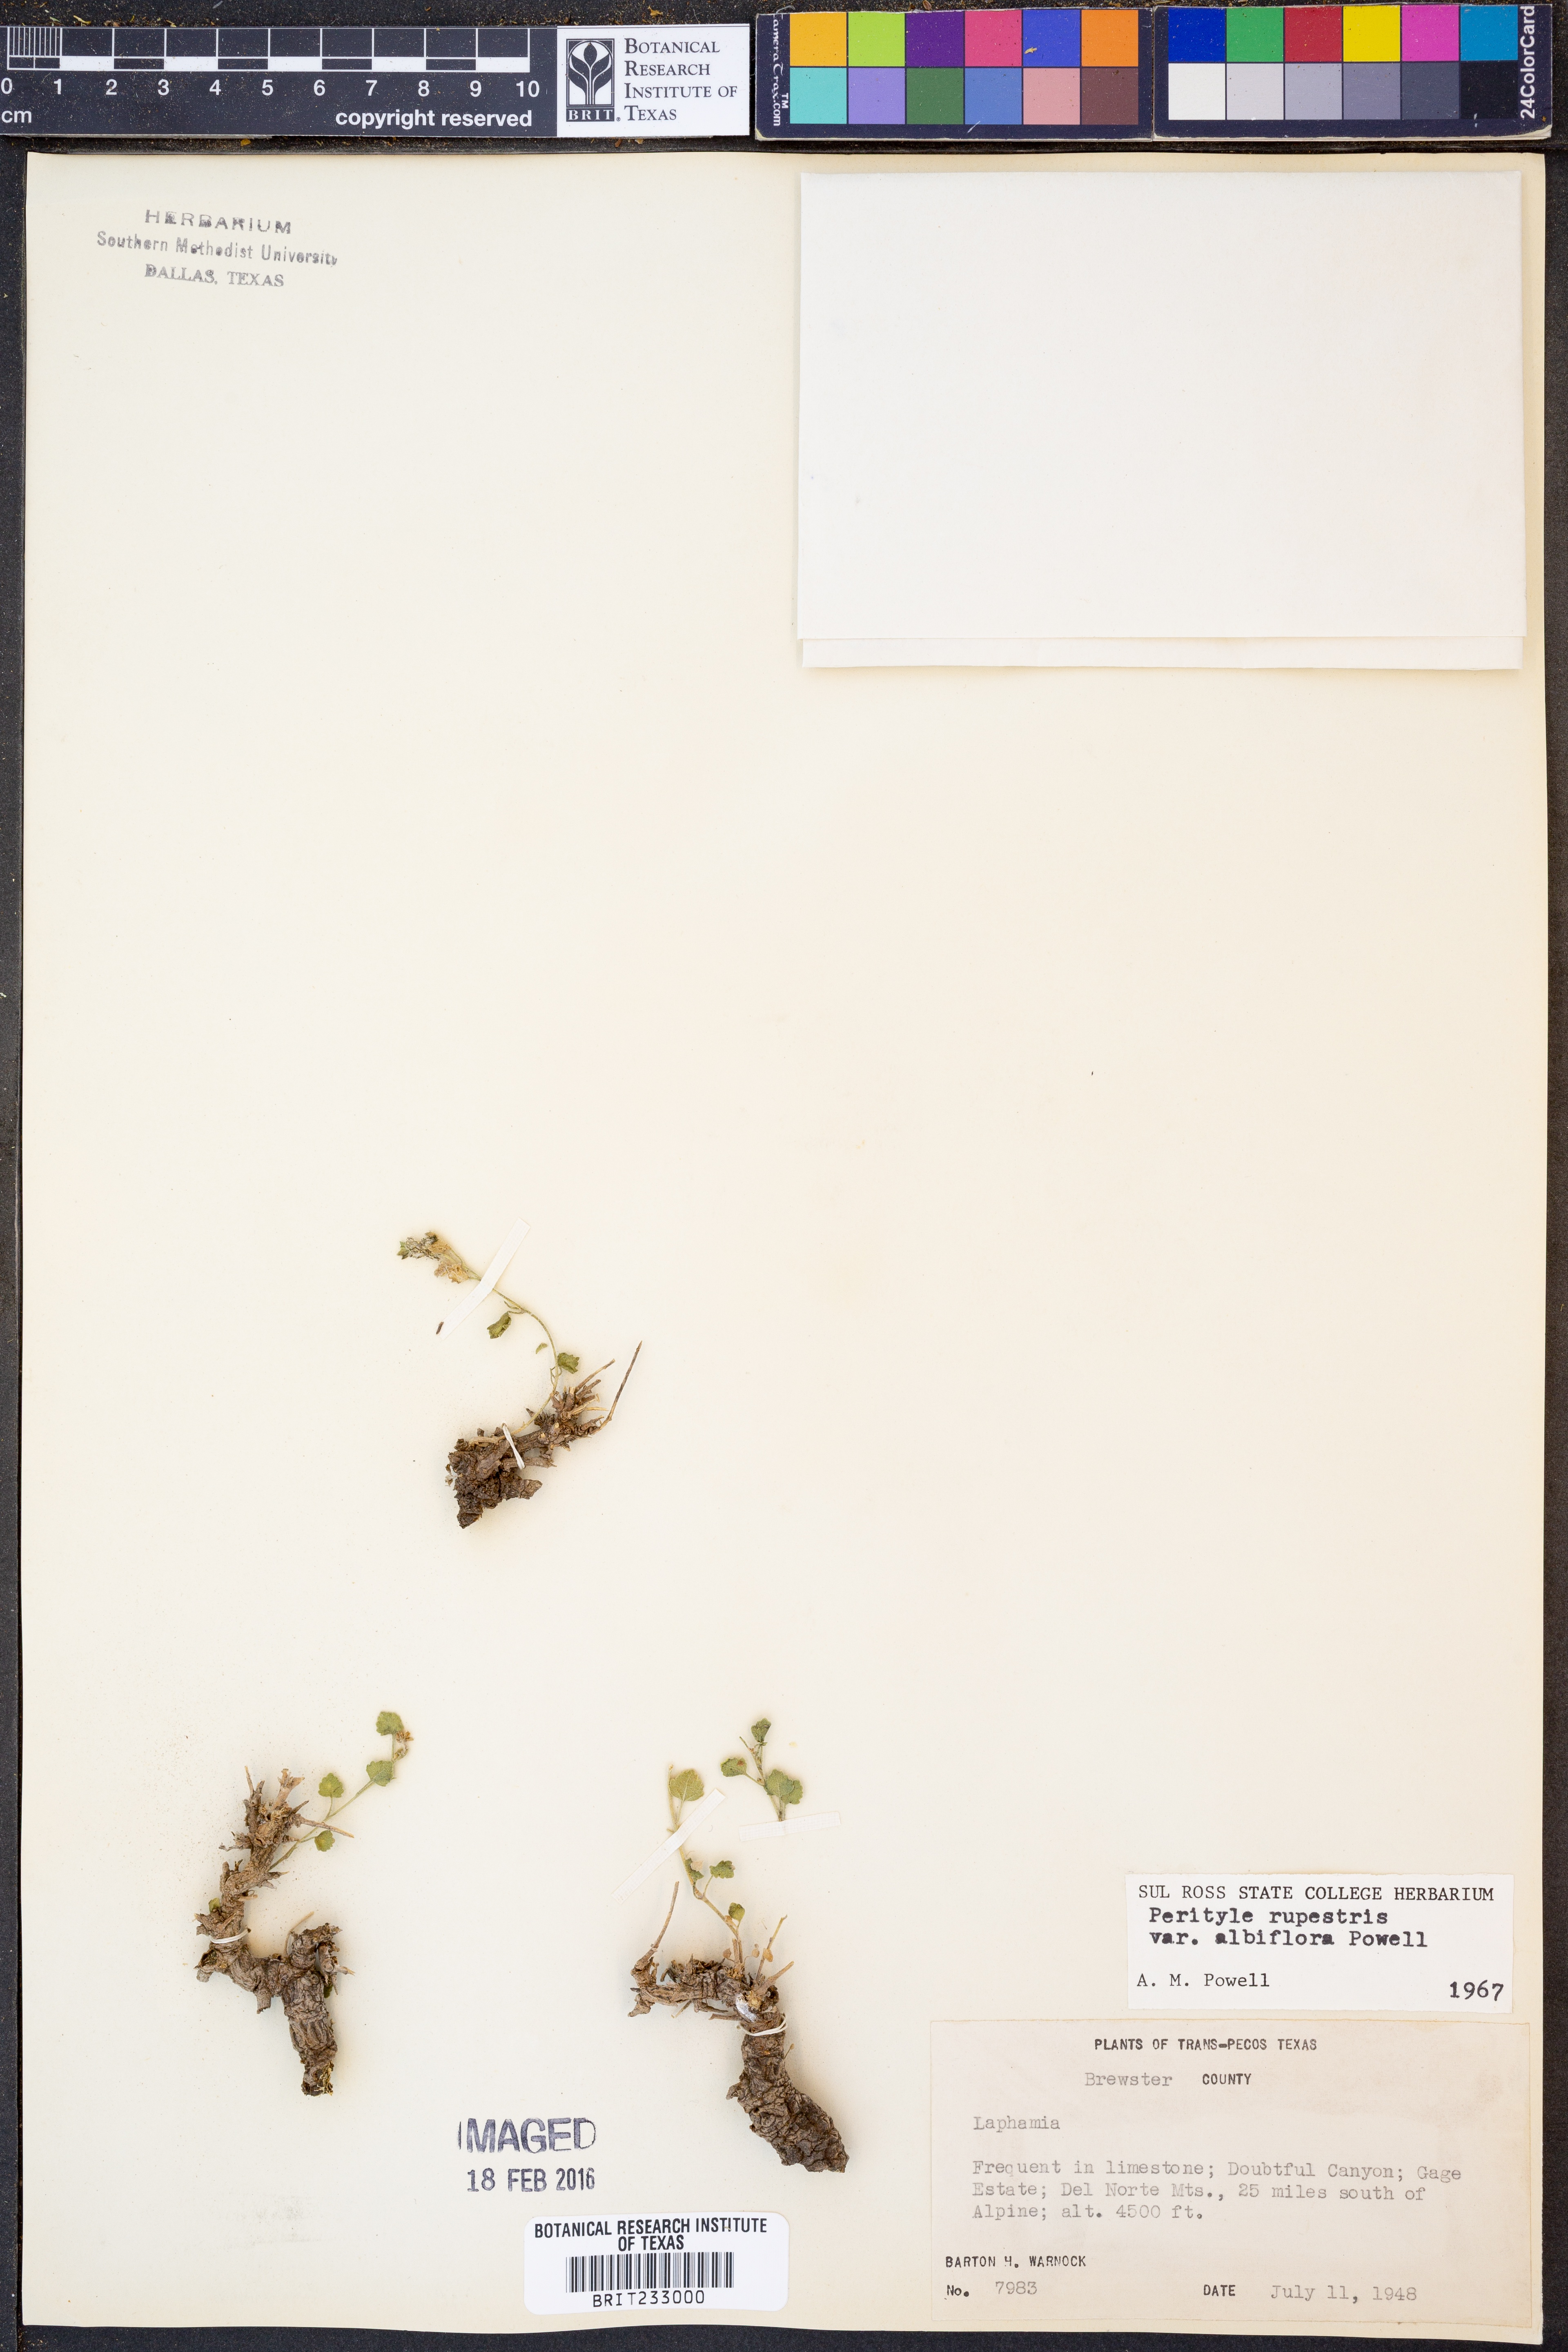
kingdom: Plantae
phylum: Tracheophyta
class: Magnoliopsida
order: Asterales
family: Asteraceae
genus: Laphamia
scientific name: Laphamia rupestris
